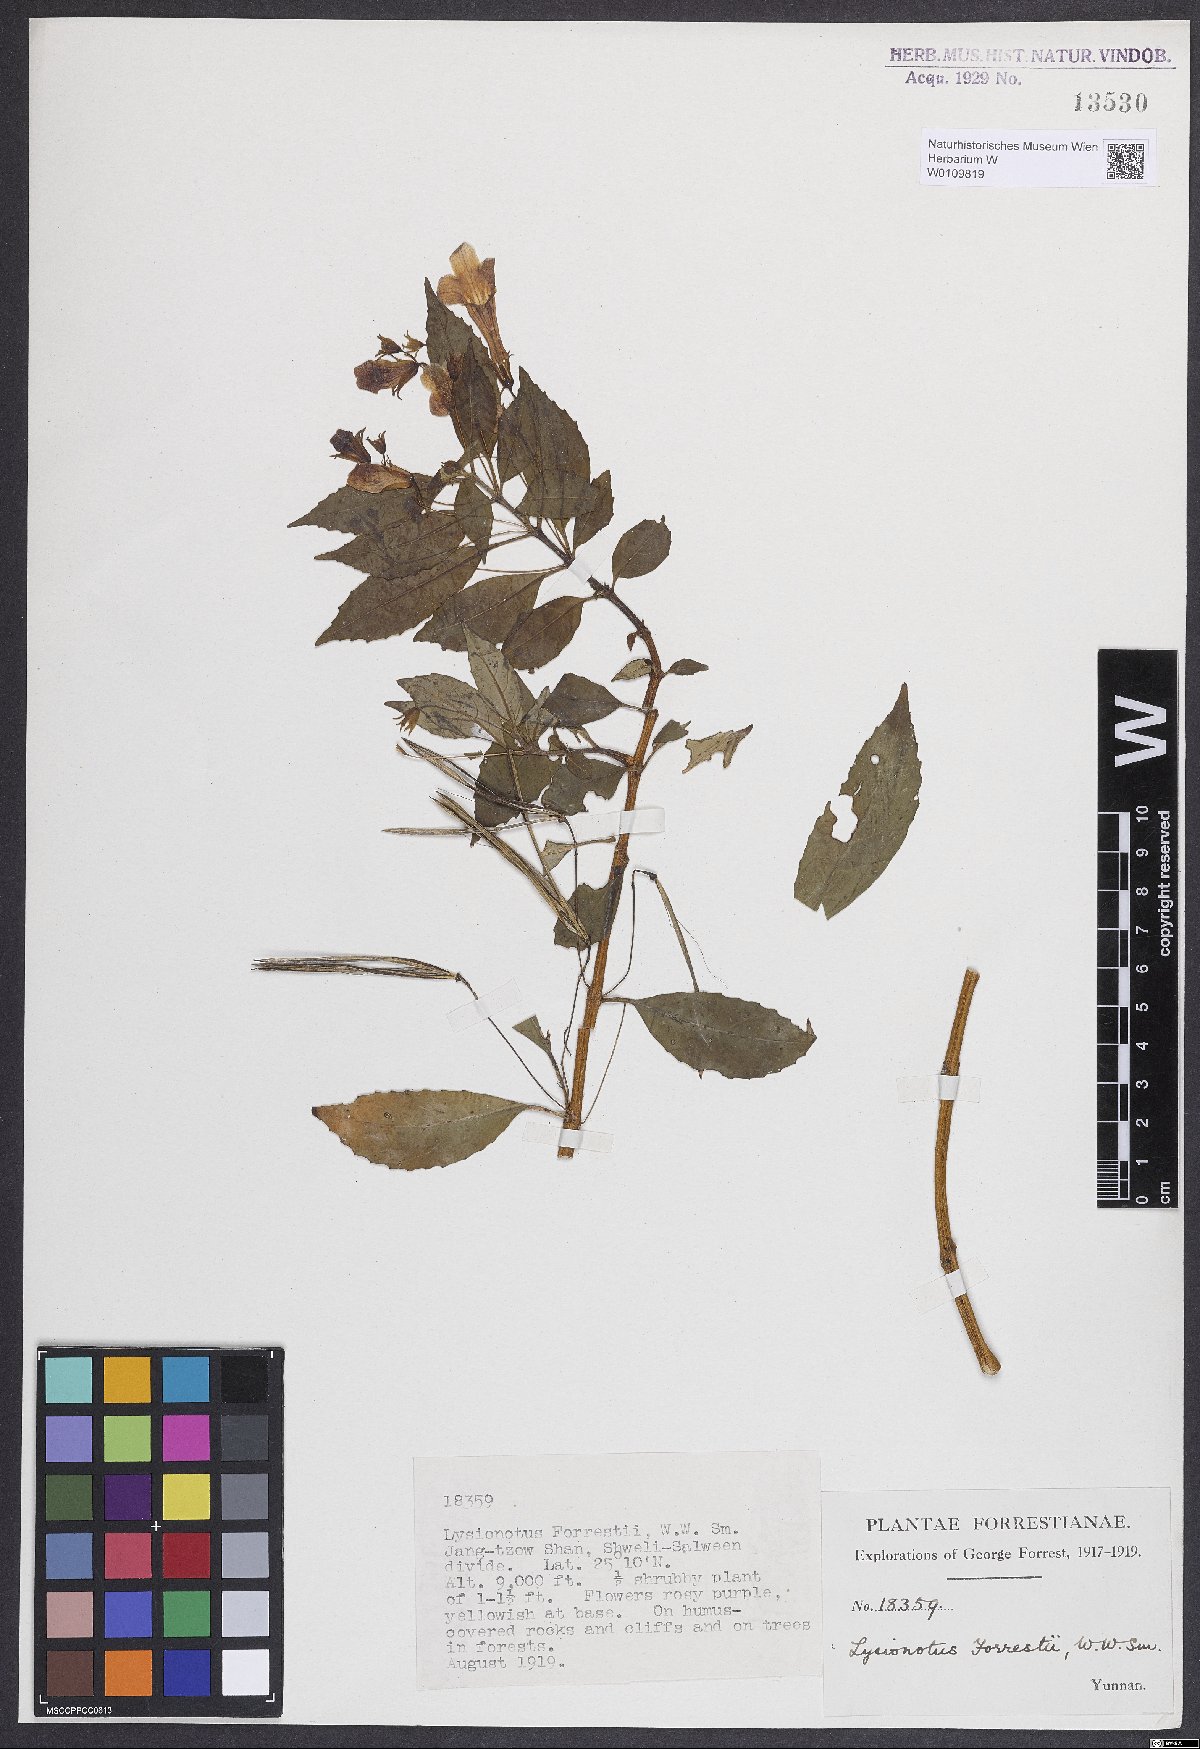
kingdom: Plantae
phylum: Tracheophyta
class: Magnoliopsida
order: Lamiales
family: Gesneriaceae
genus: Lysionotus
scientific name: Lysionotus forrestii
